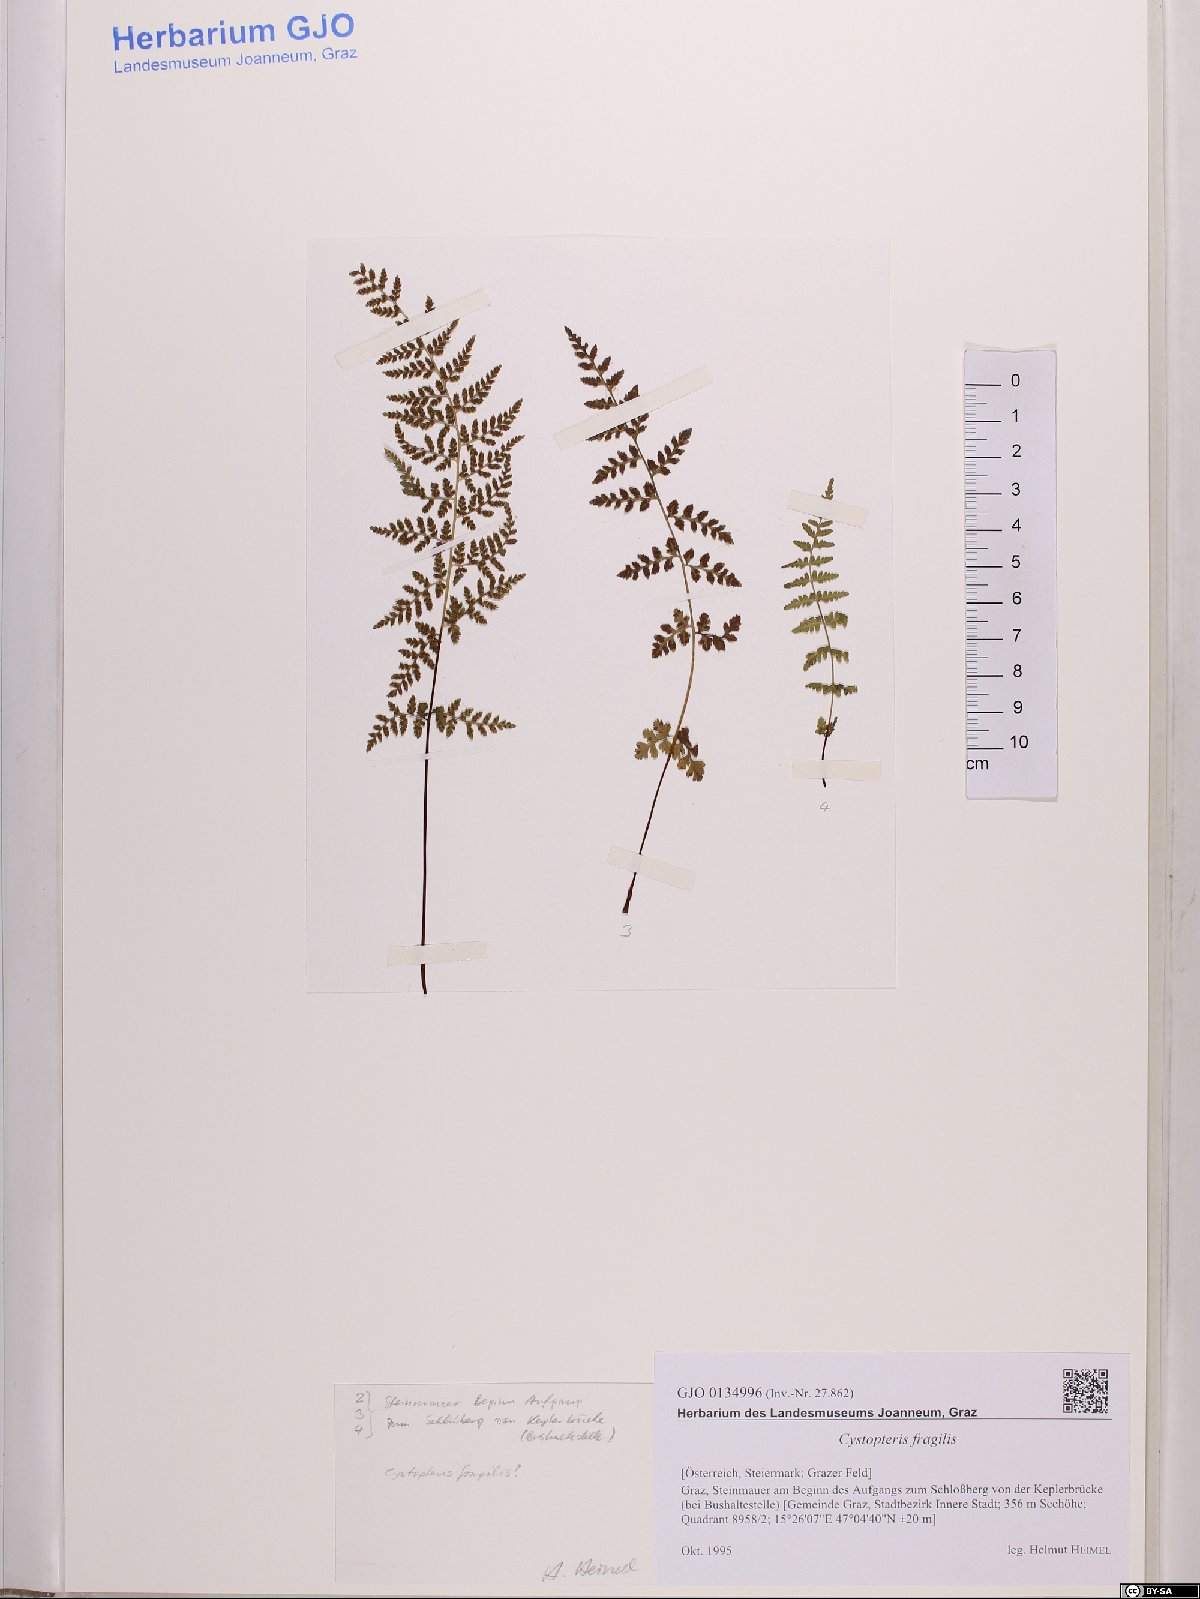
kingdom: Plantae
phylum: Tracheophyta
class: Polypodiopsida
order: Polypodiales
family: Cystopteridaceae
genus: Cystopteris
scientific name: Cystopteris fragilis
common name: Brittle bladder fern
